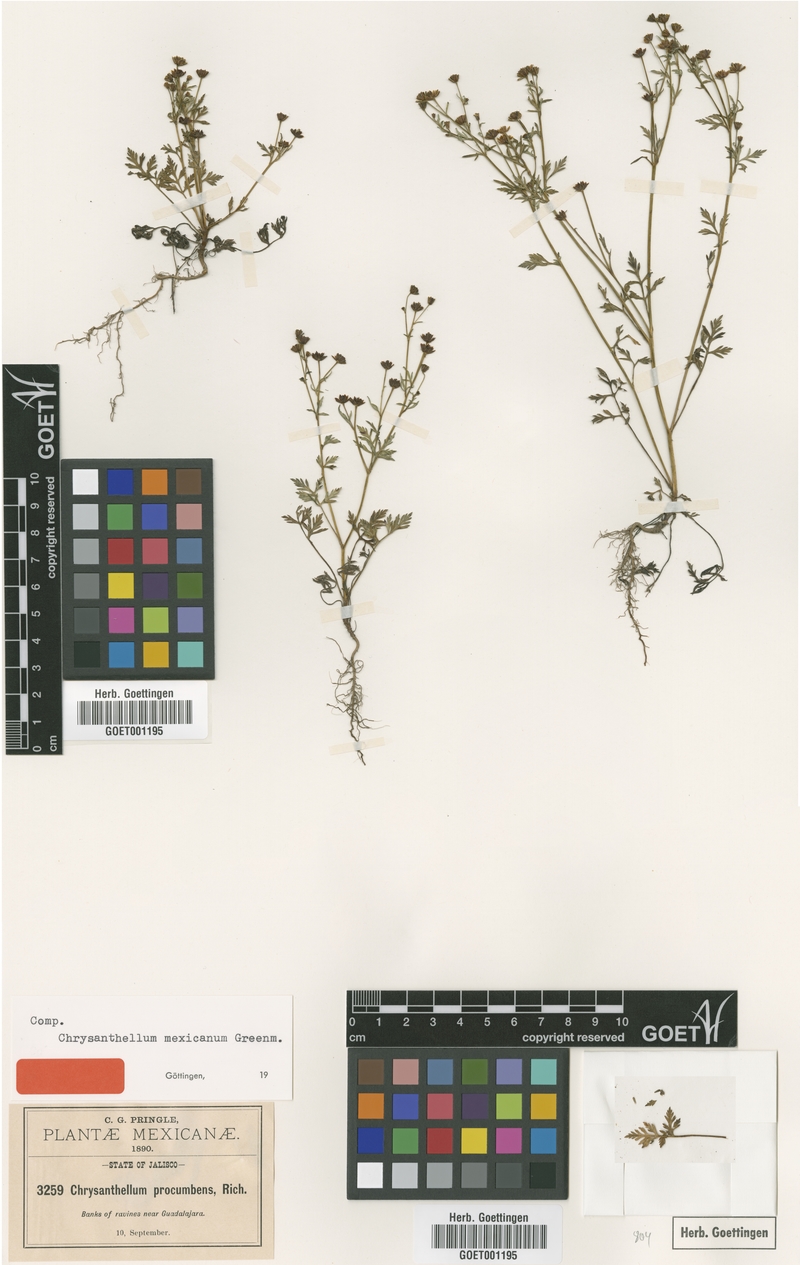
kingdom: Plantae
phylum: Tracheophyta
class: Magnoliopsida
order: Asterales
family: Asteraceae
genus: Chrysanthellum
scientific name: Chrysanthellum indicum
